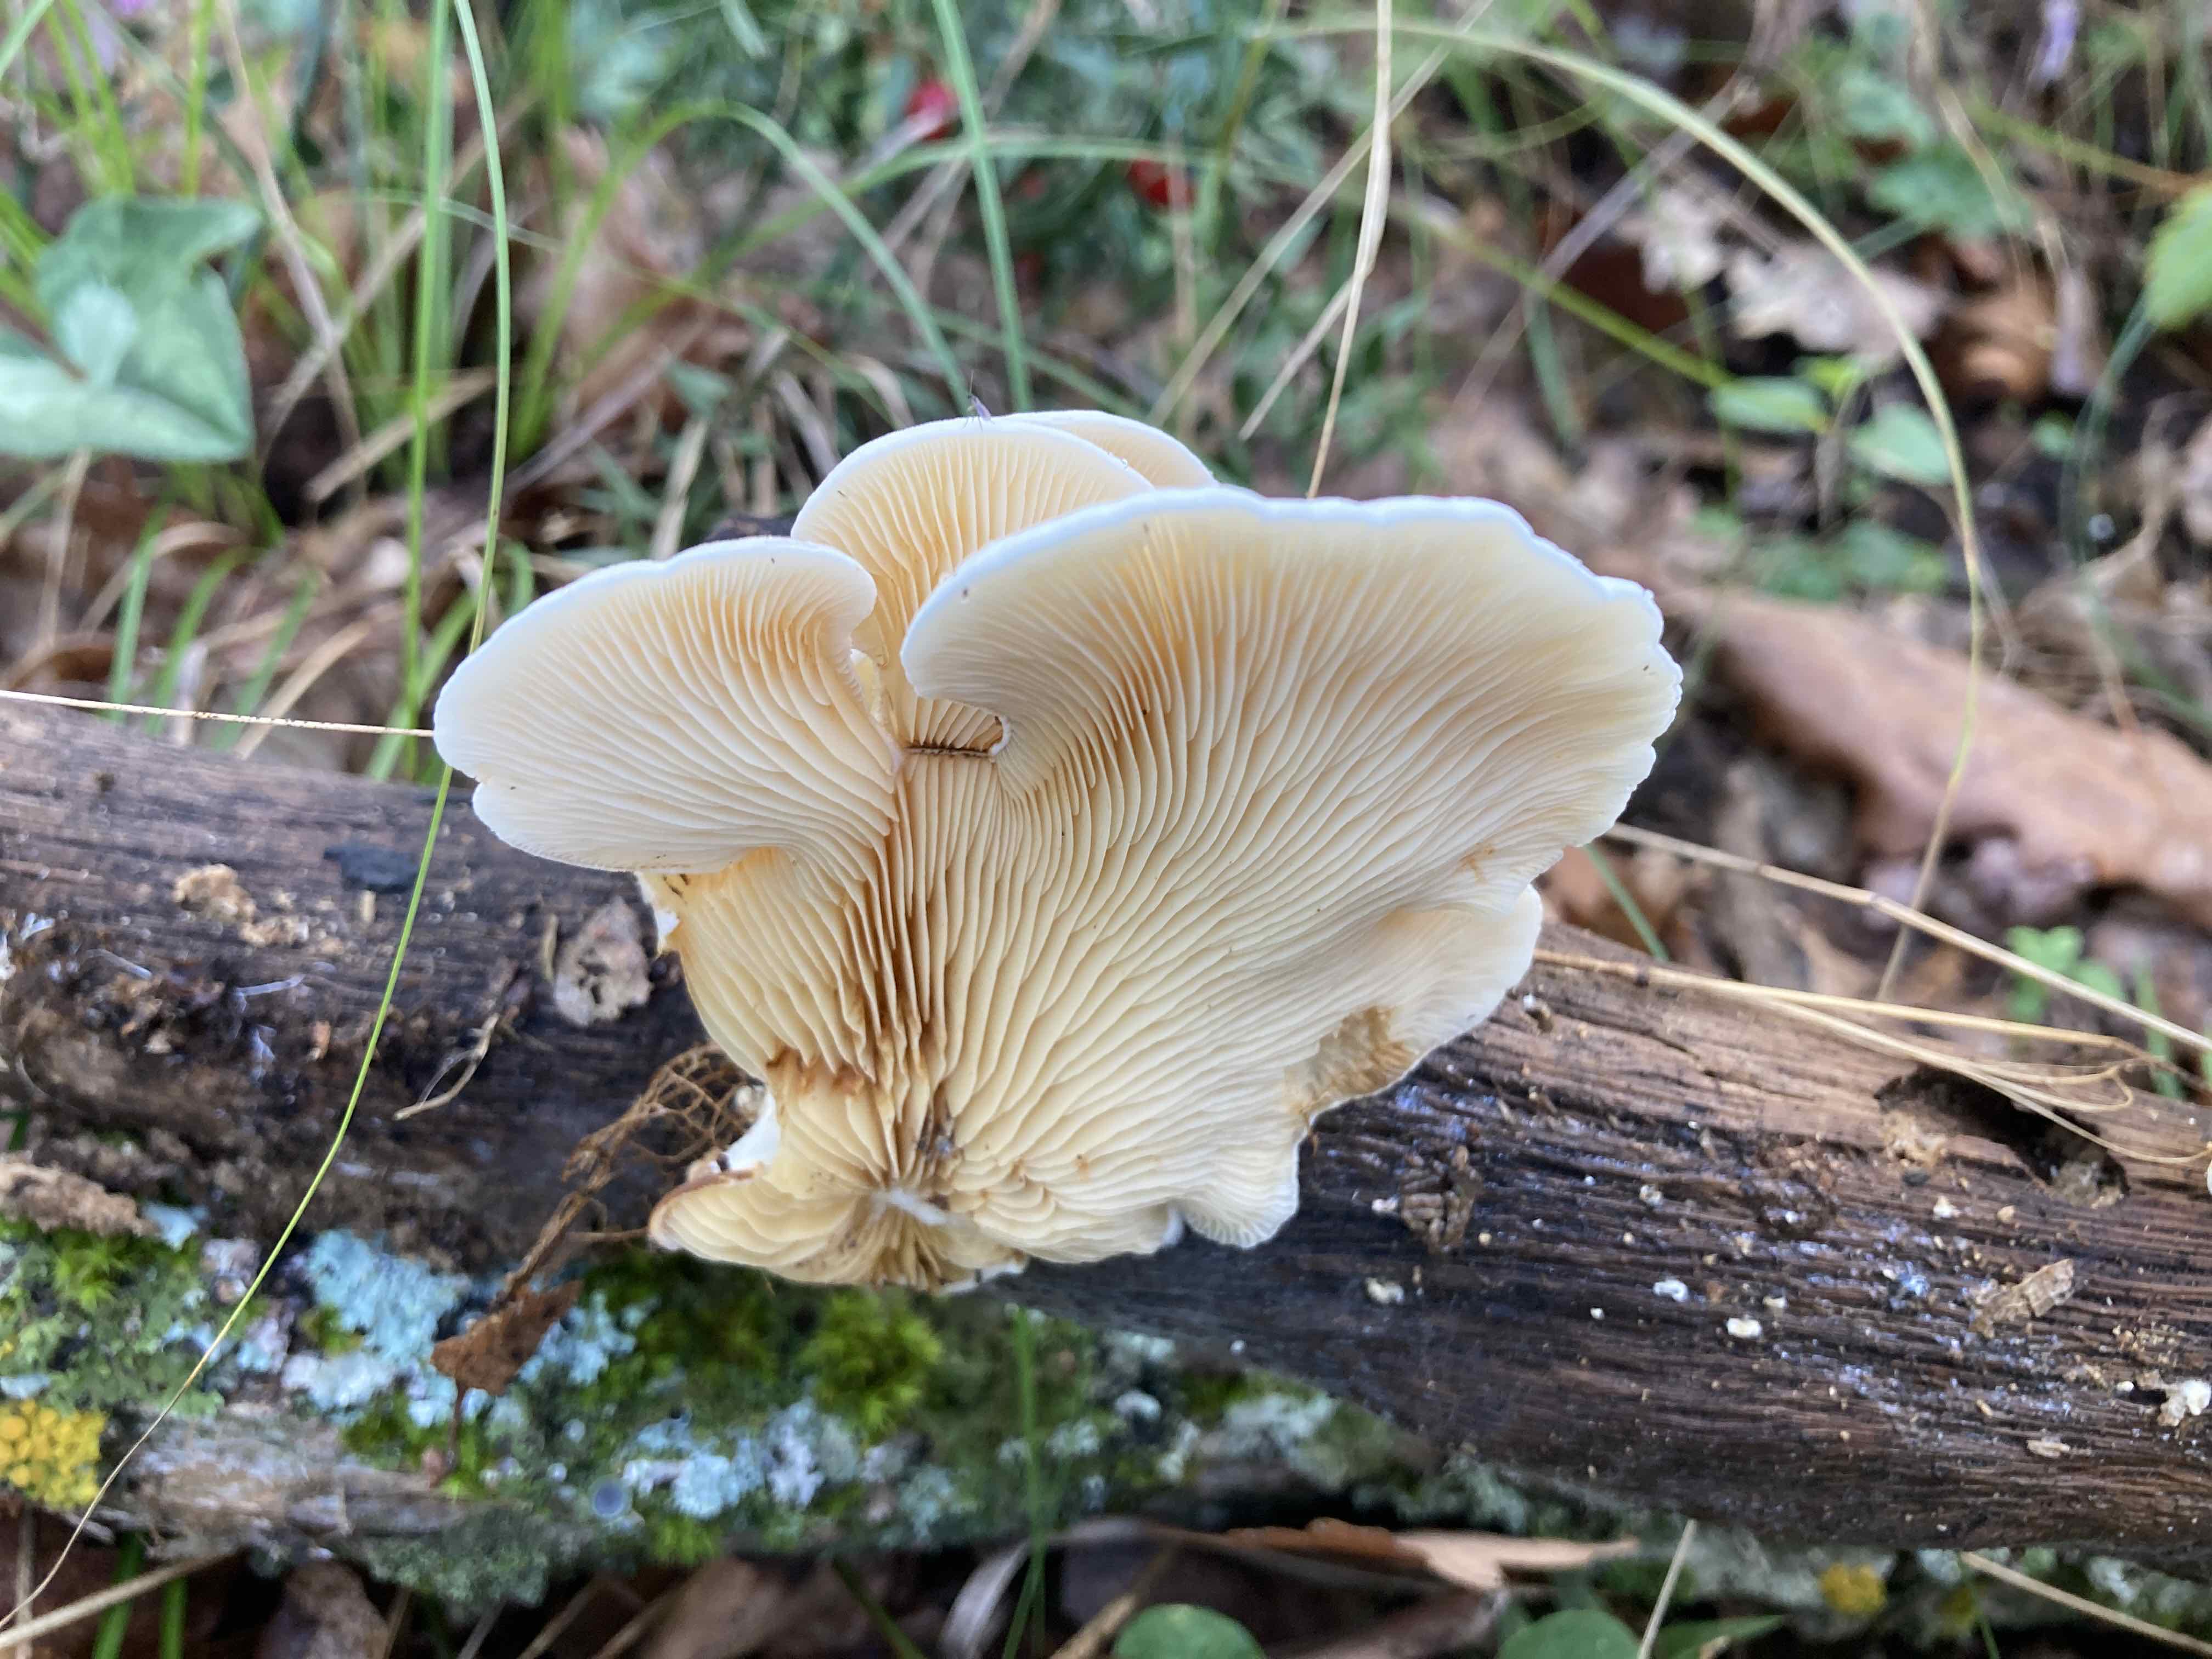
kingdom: Fungi
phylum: Basidiomycota
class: Agaricomycetes
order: Agaricales
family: Crepidotaceae
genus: Crepidotus
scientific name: Crepidotus macedonicus
